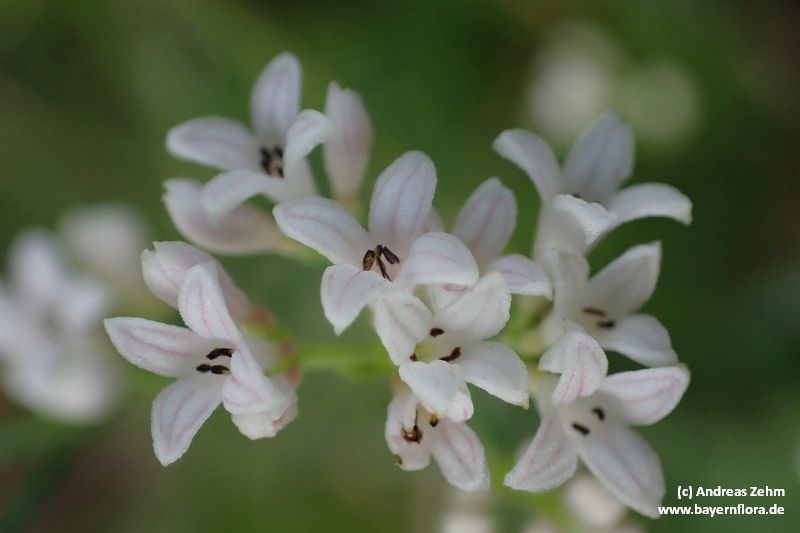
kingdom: Plantae
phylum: Tracheophyta
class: Magnoliopsida
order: Gentianales
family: Rubiaceae
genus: Cynanchica
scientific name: Cynanchica pyrenaica
